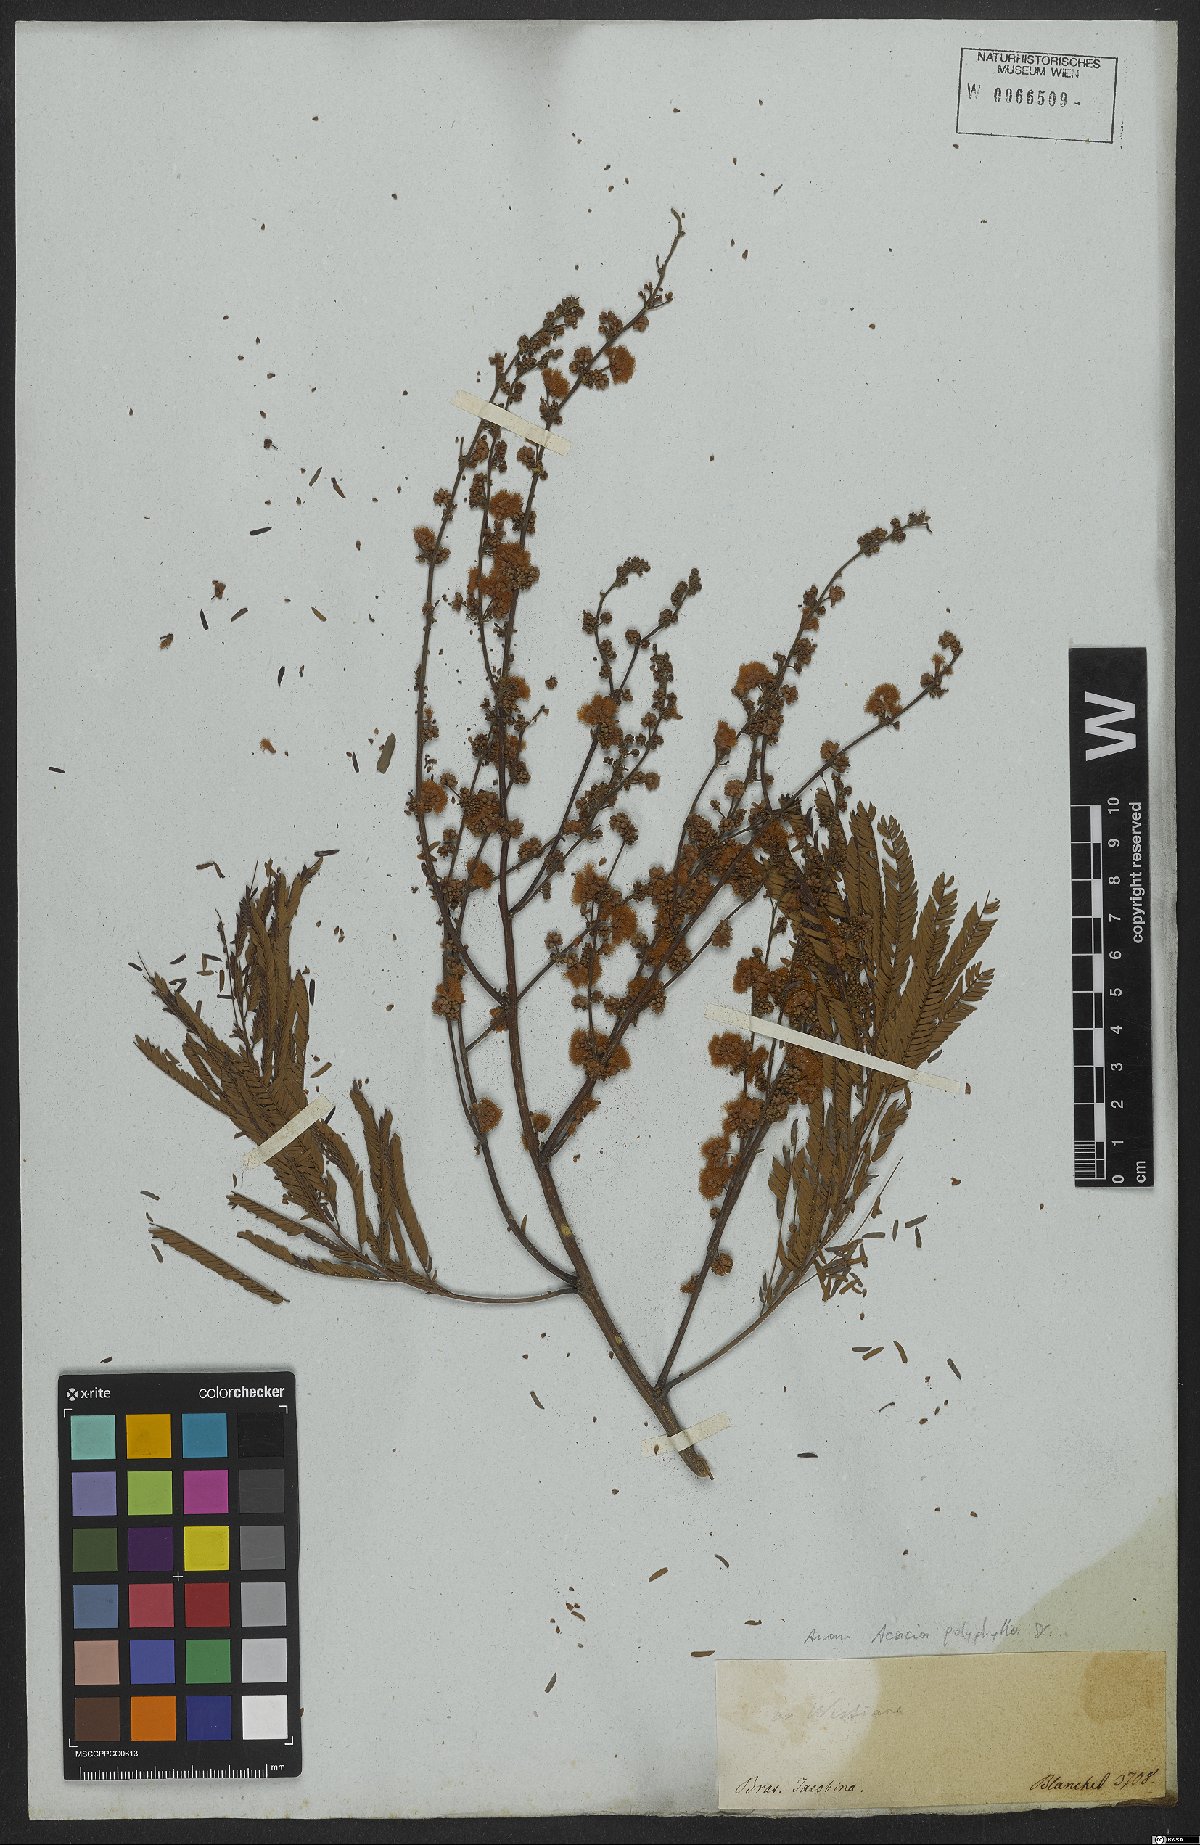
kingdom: Plantae
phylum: Tracheophyta
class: Magnoliopsida
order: Fabales
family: Fabaceae
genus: Senegalia
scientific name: Senegalia polyphylla
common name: White-tamarind
